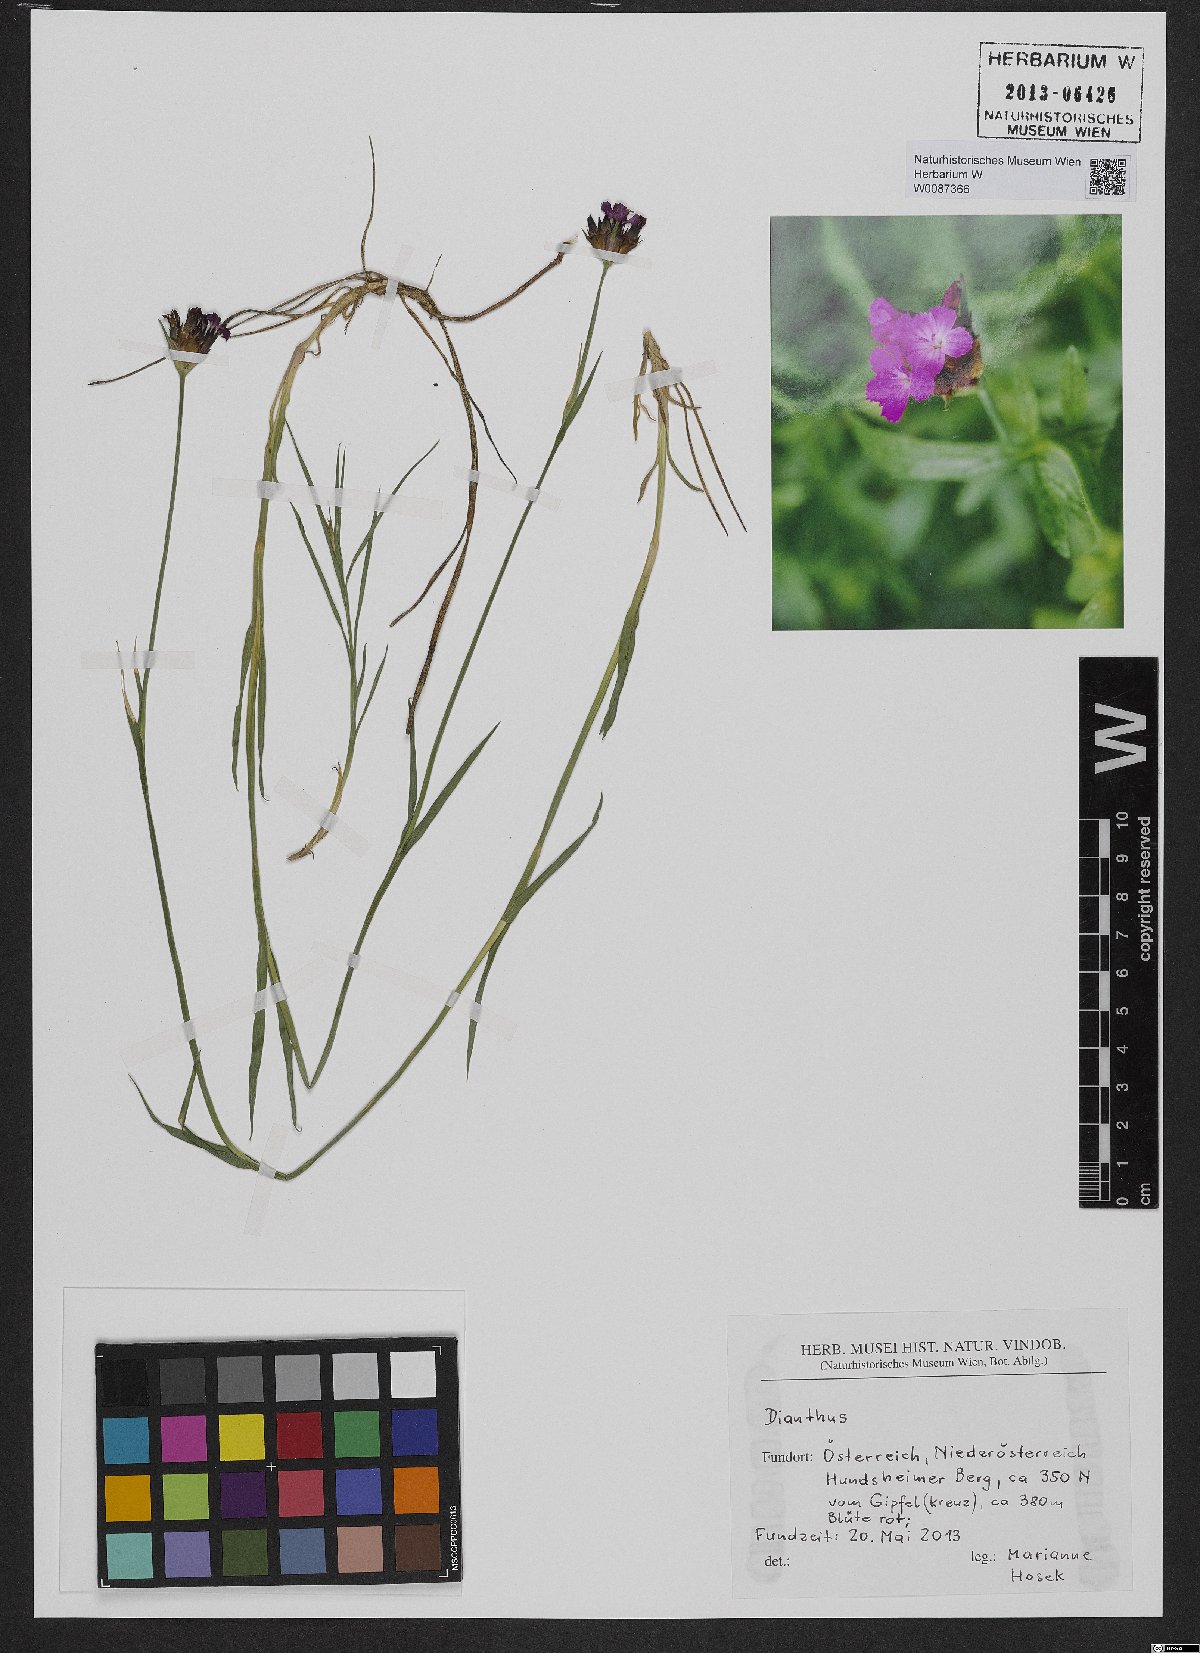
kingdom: Plantae
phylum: Tracheophyta
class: Magnoliopsida
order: Caryophyllales
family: Caryophyllaceae
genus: Dianthus
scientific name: Dianthus pontederae
